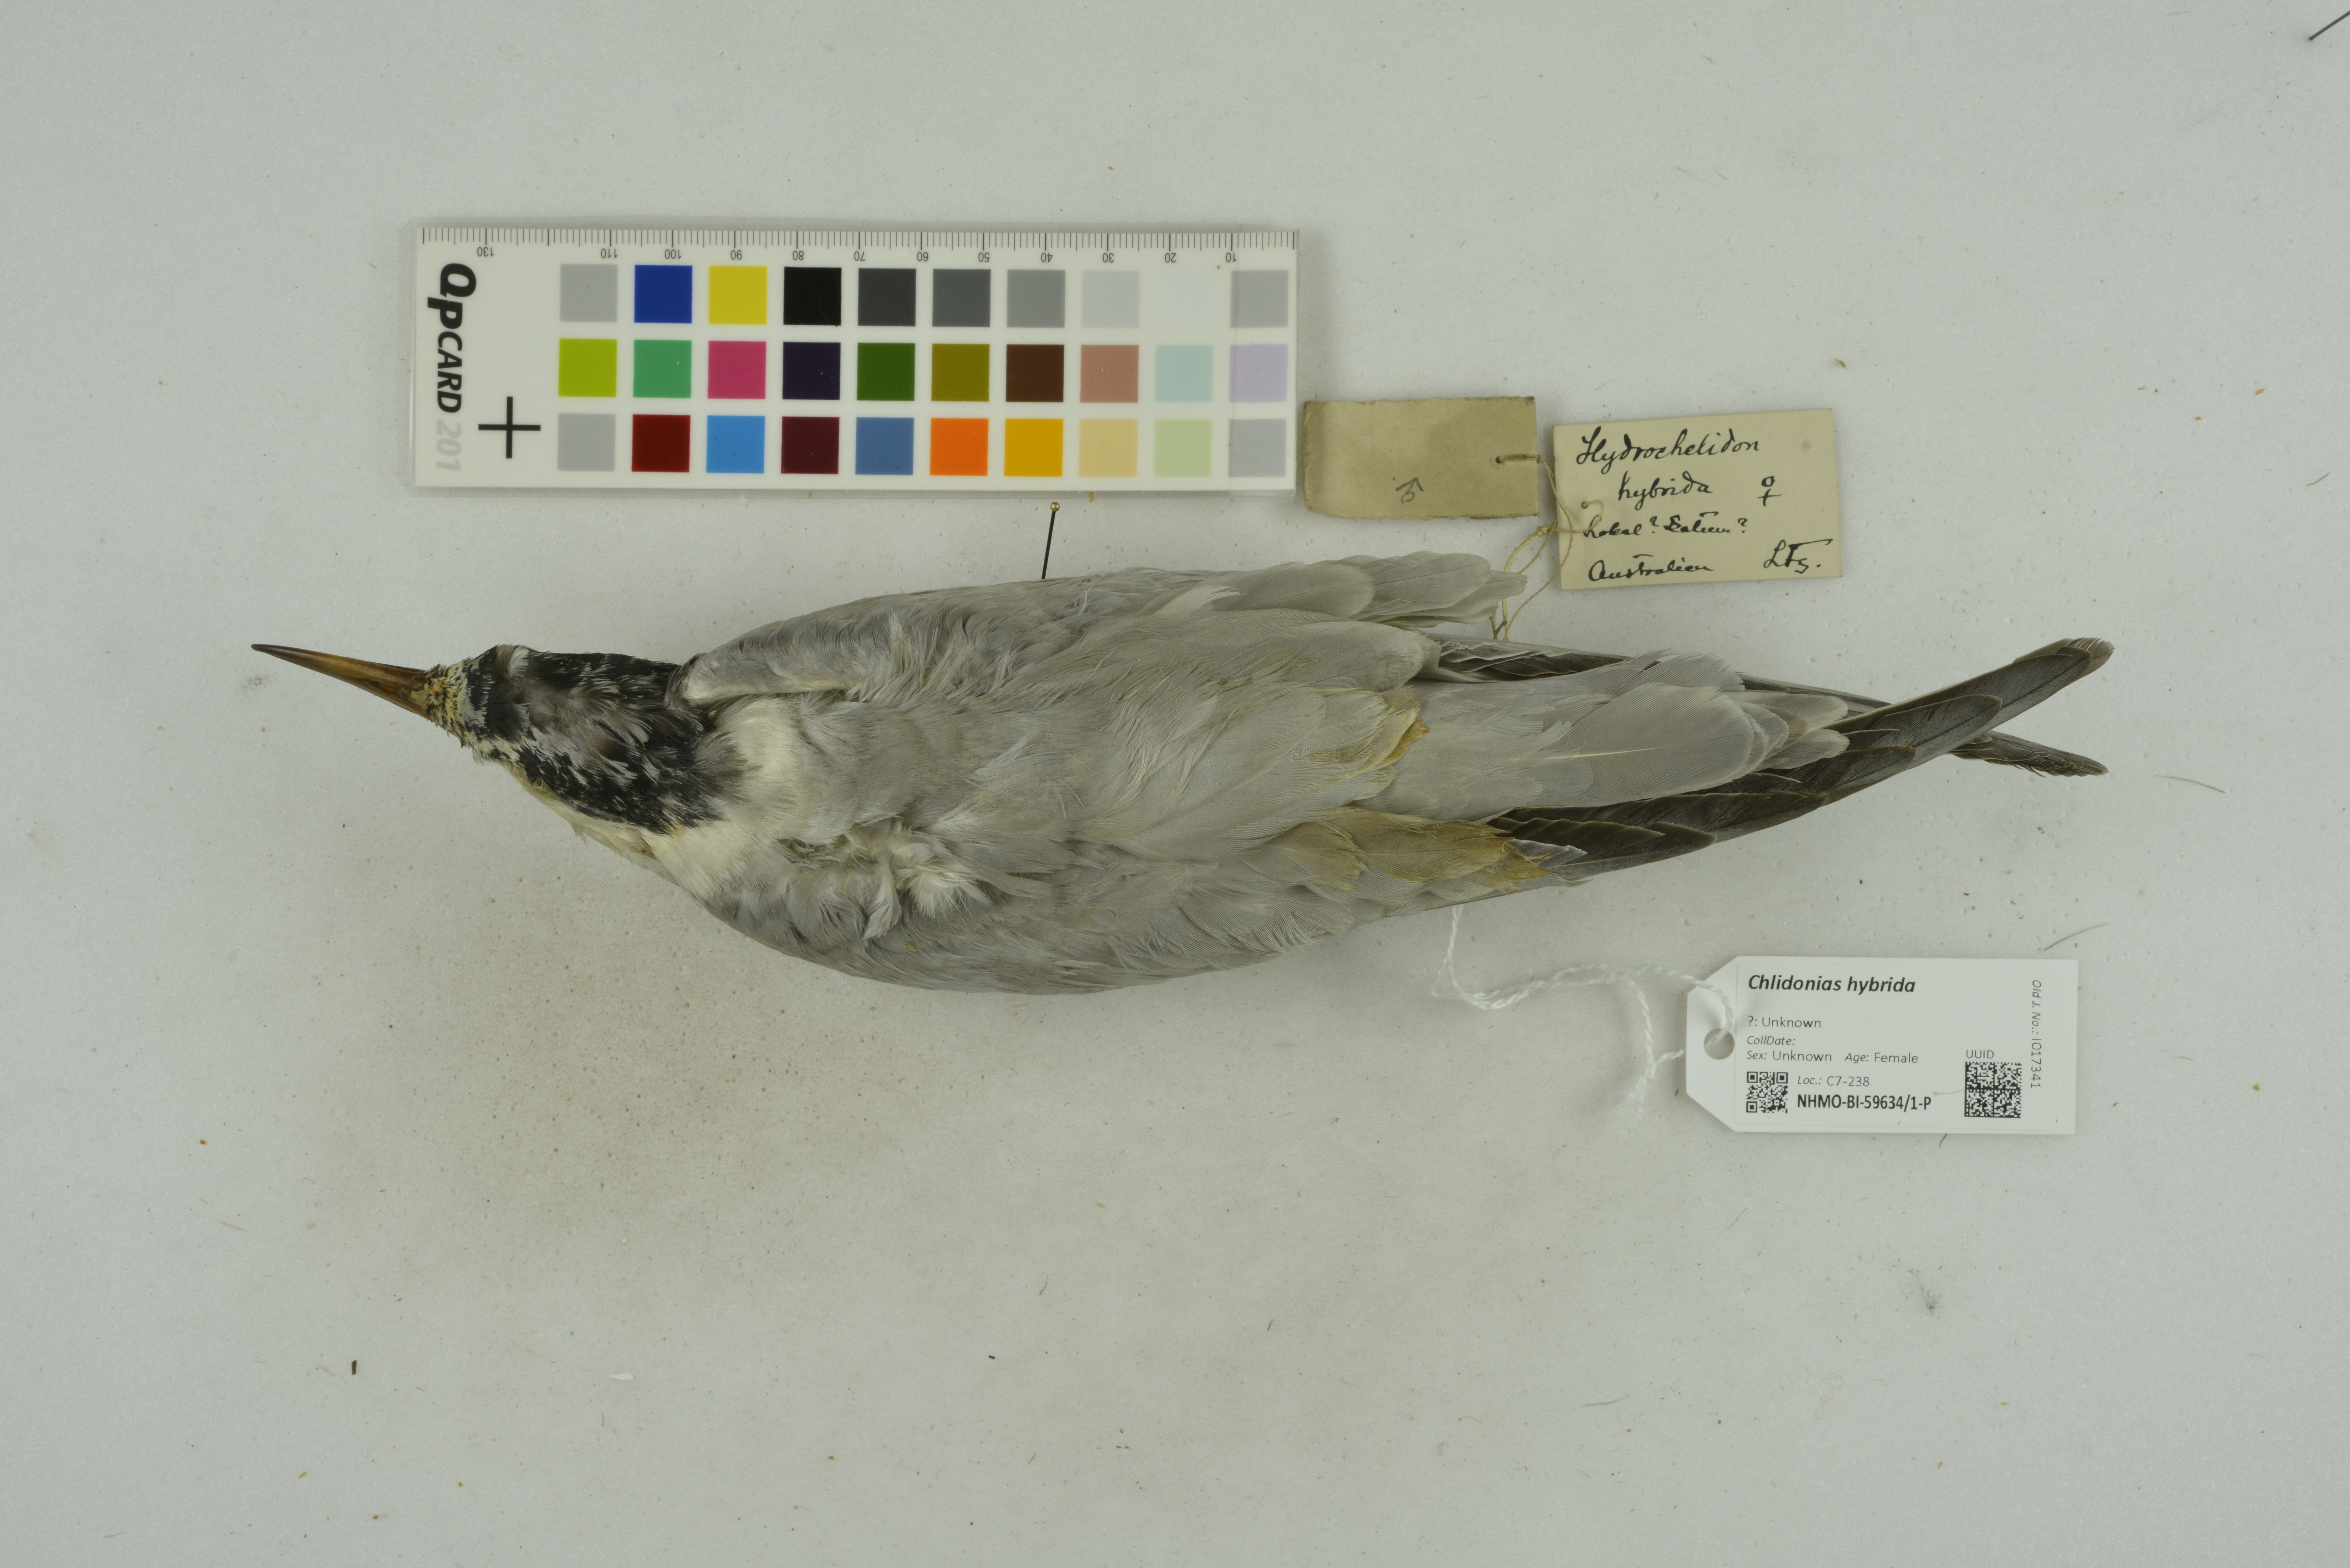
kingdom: Animalia
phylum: Chordata
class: Aves
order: Charadriiformes
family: Laridae
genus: Chlidonias
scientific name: Chlidonias hybrida
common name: Whiskered tern
